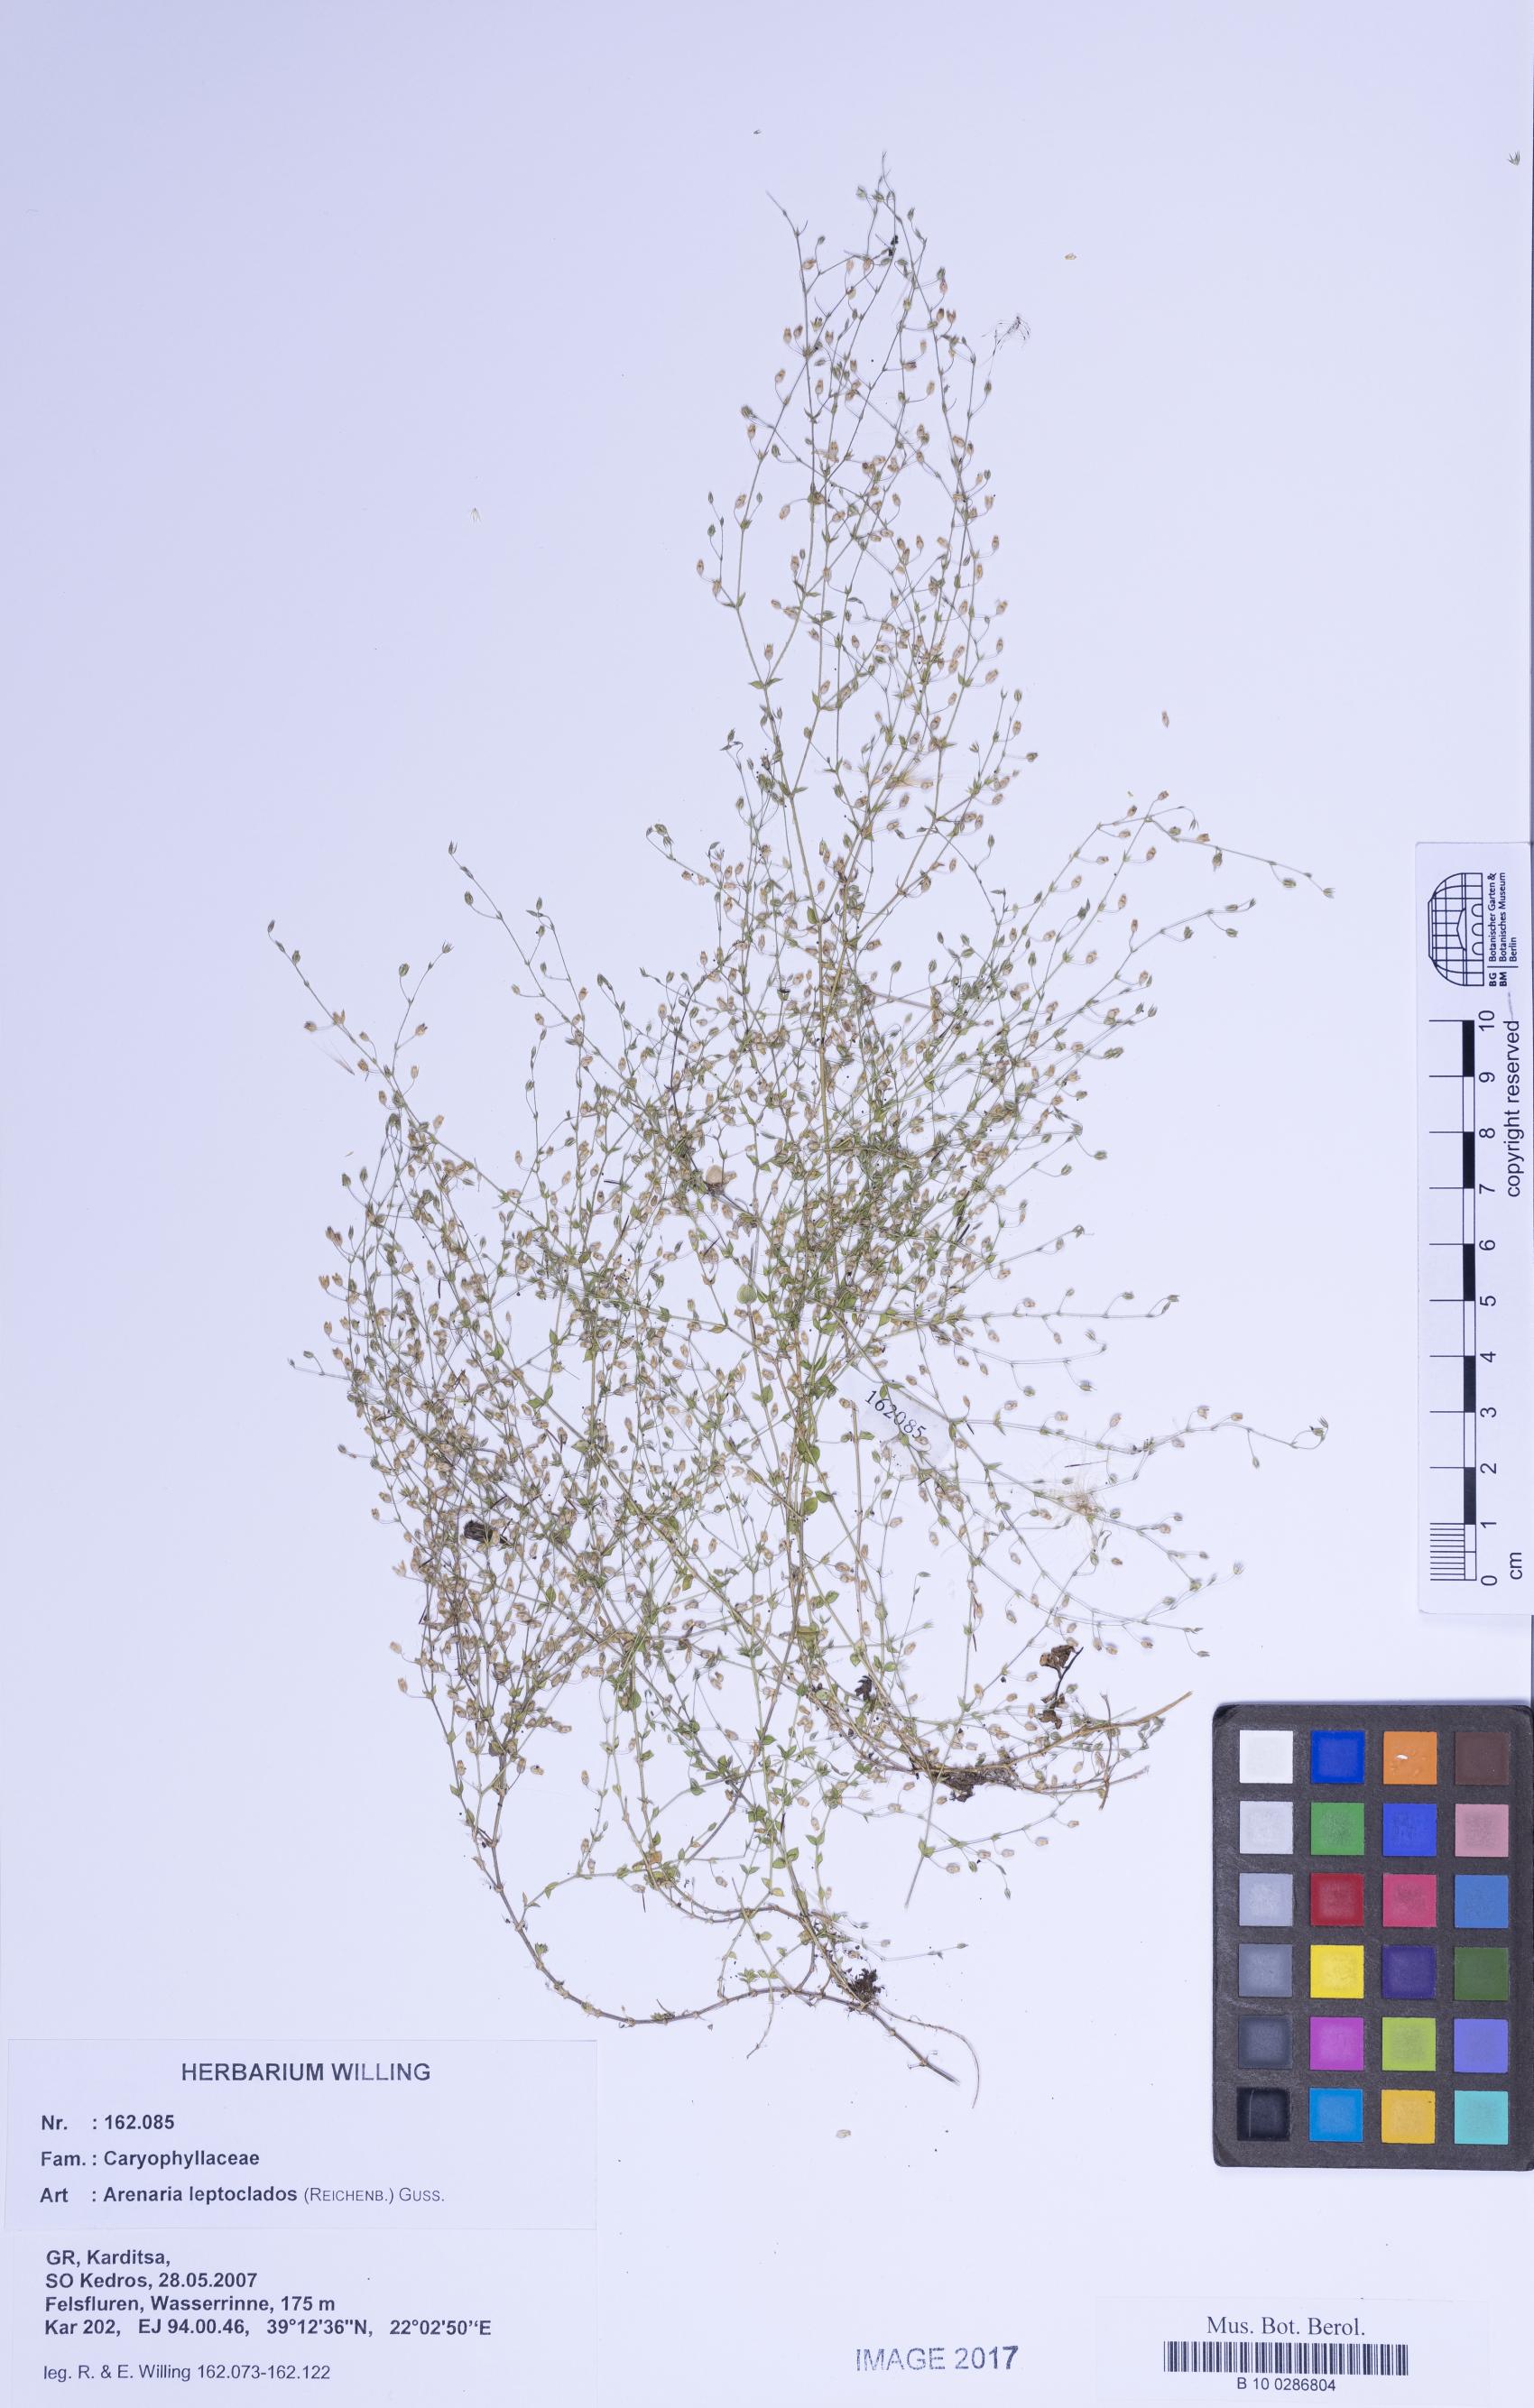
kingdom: Plantae
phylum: Tracheophyta
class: Magnoliopsida
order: Caryophyllales
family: Caryophyllaceae
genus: Arenaria
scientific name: Arenaria leptoclados
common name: Thyme-leaved sandwort
